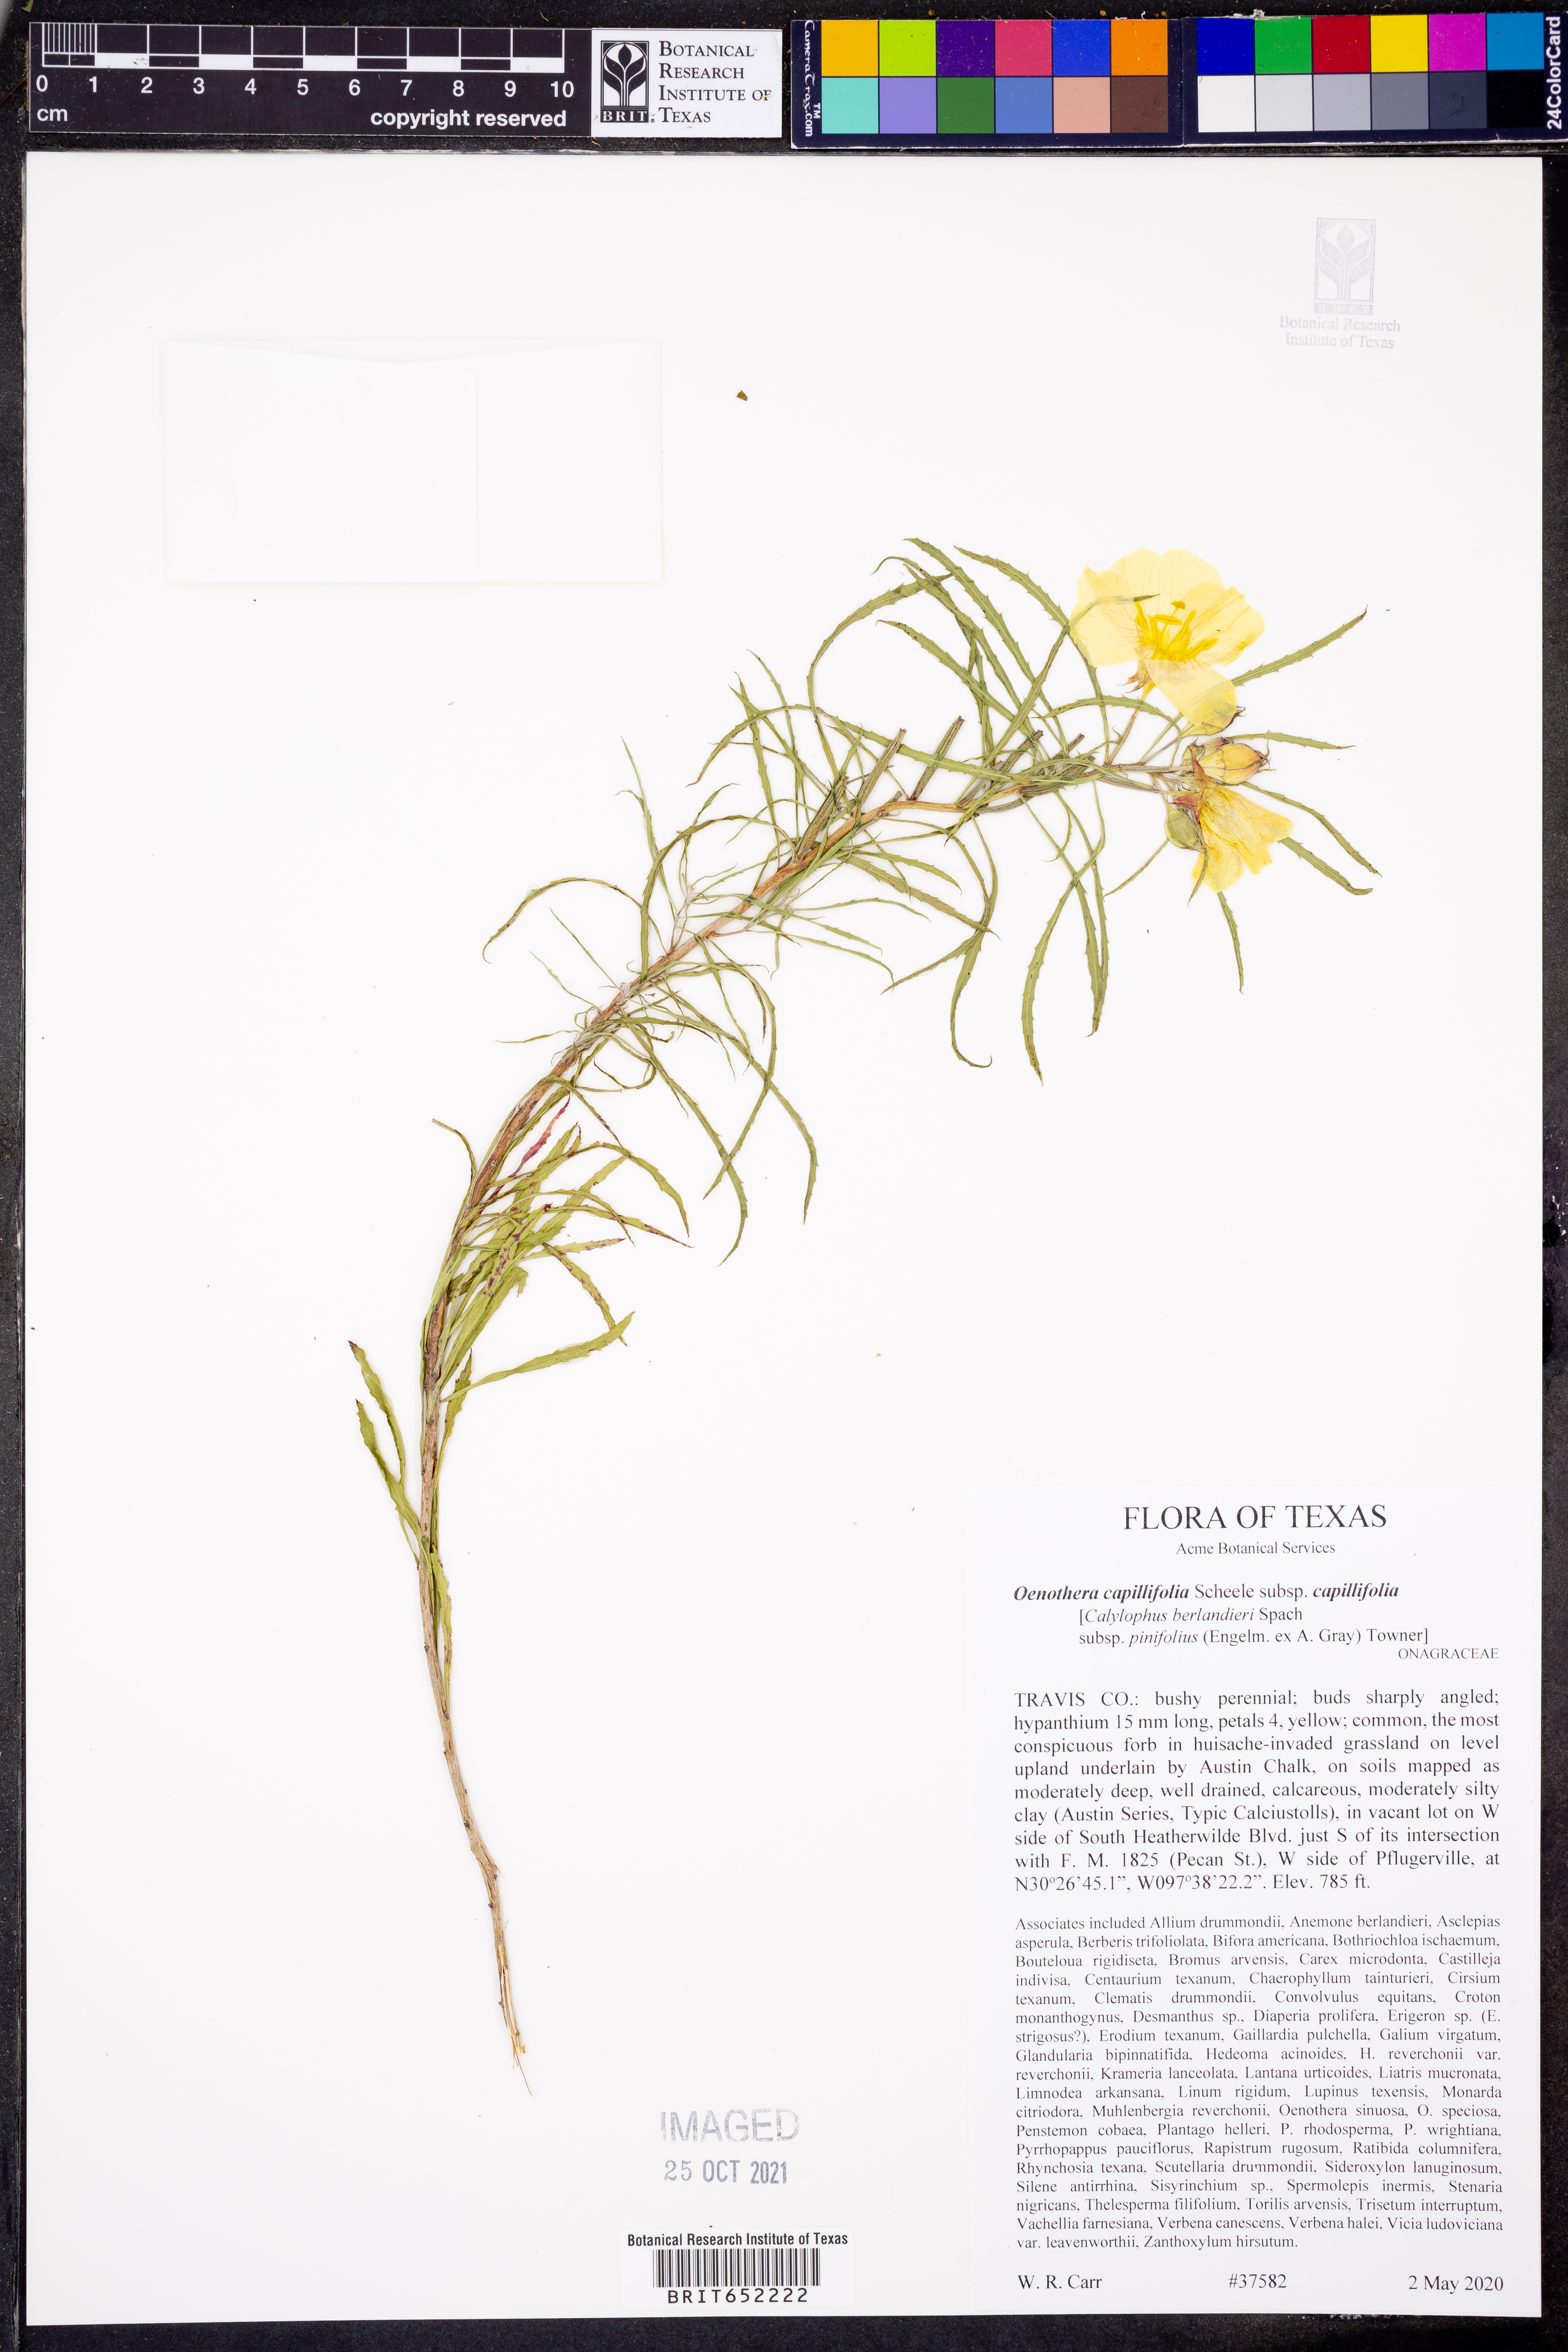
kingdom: Plantae
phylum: Tracheophyta
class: Magnoliopsida
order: Myrtales
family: Onagraceae
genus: Oenothera
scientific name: Oenothera capillifolia
